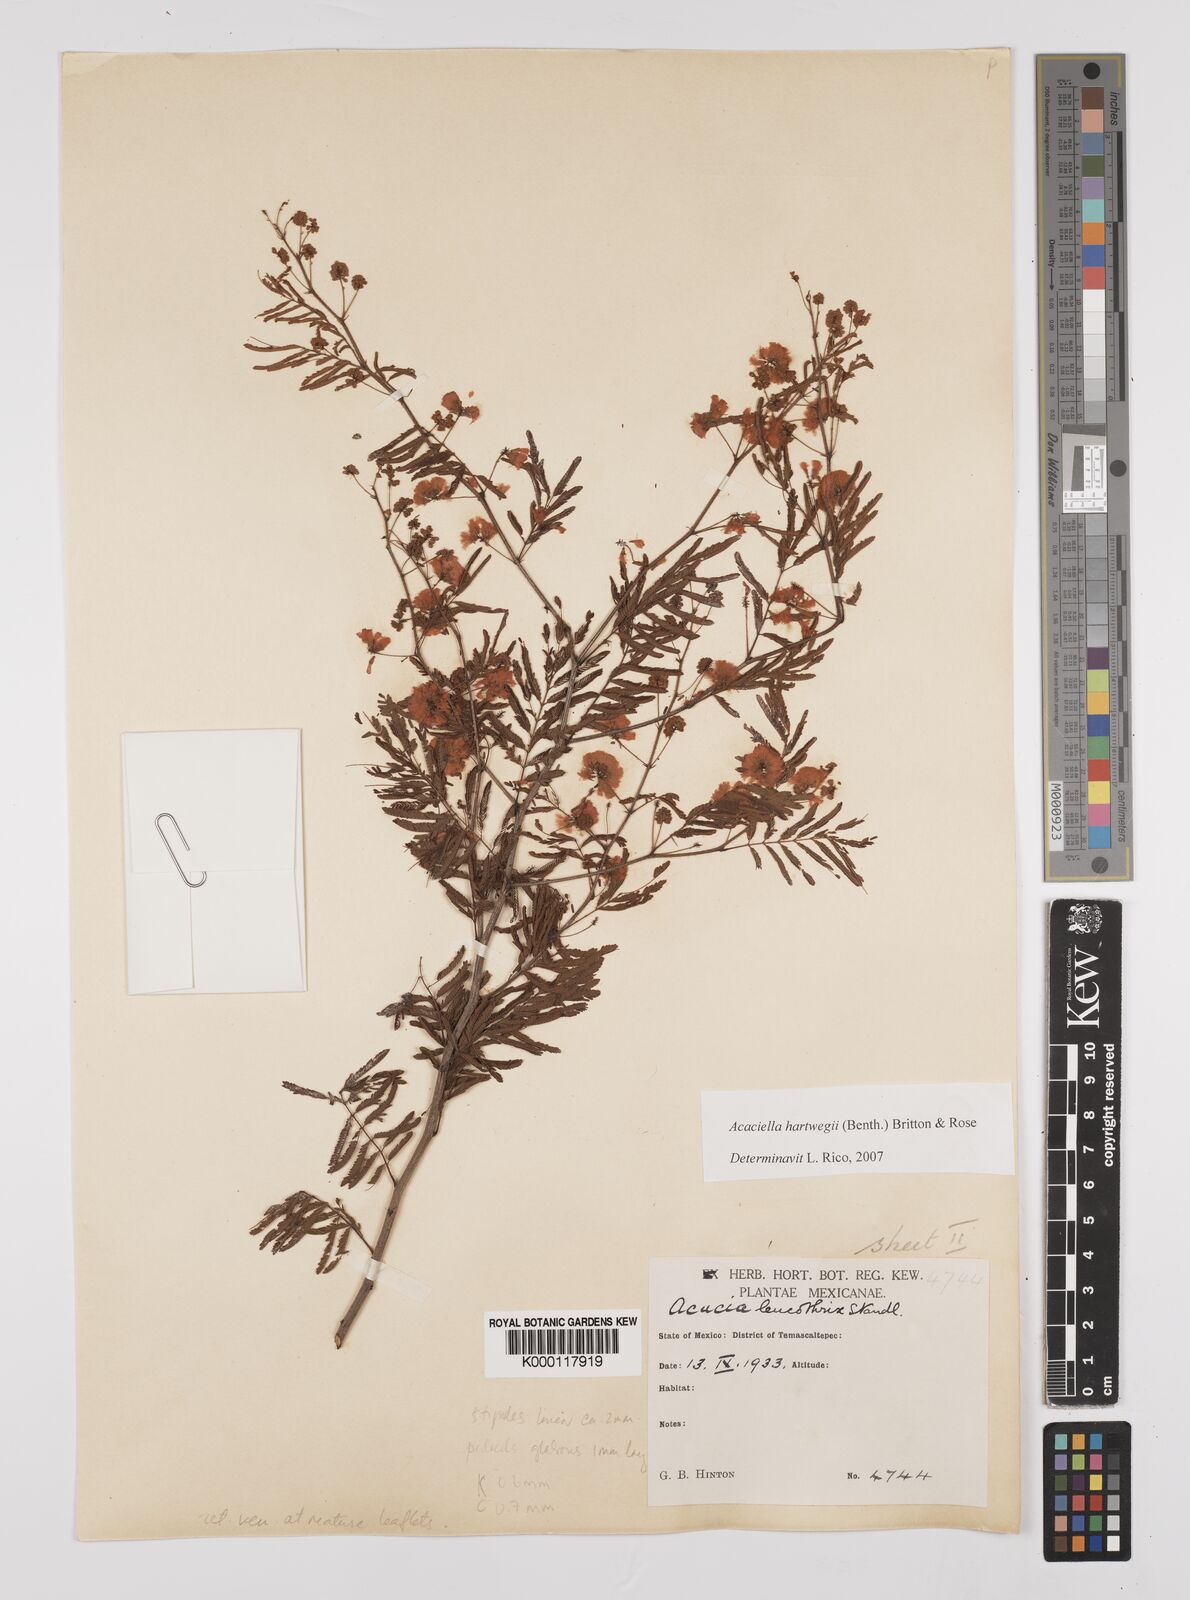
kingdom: Plantae
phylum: Tracheophyta
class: Magnoliopsida
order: Fabales
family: Fabaceae
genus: Acaciella
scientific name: Acaciella hartwegii
